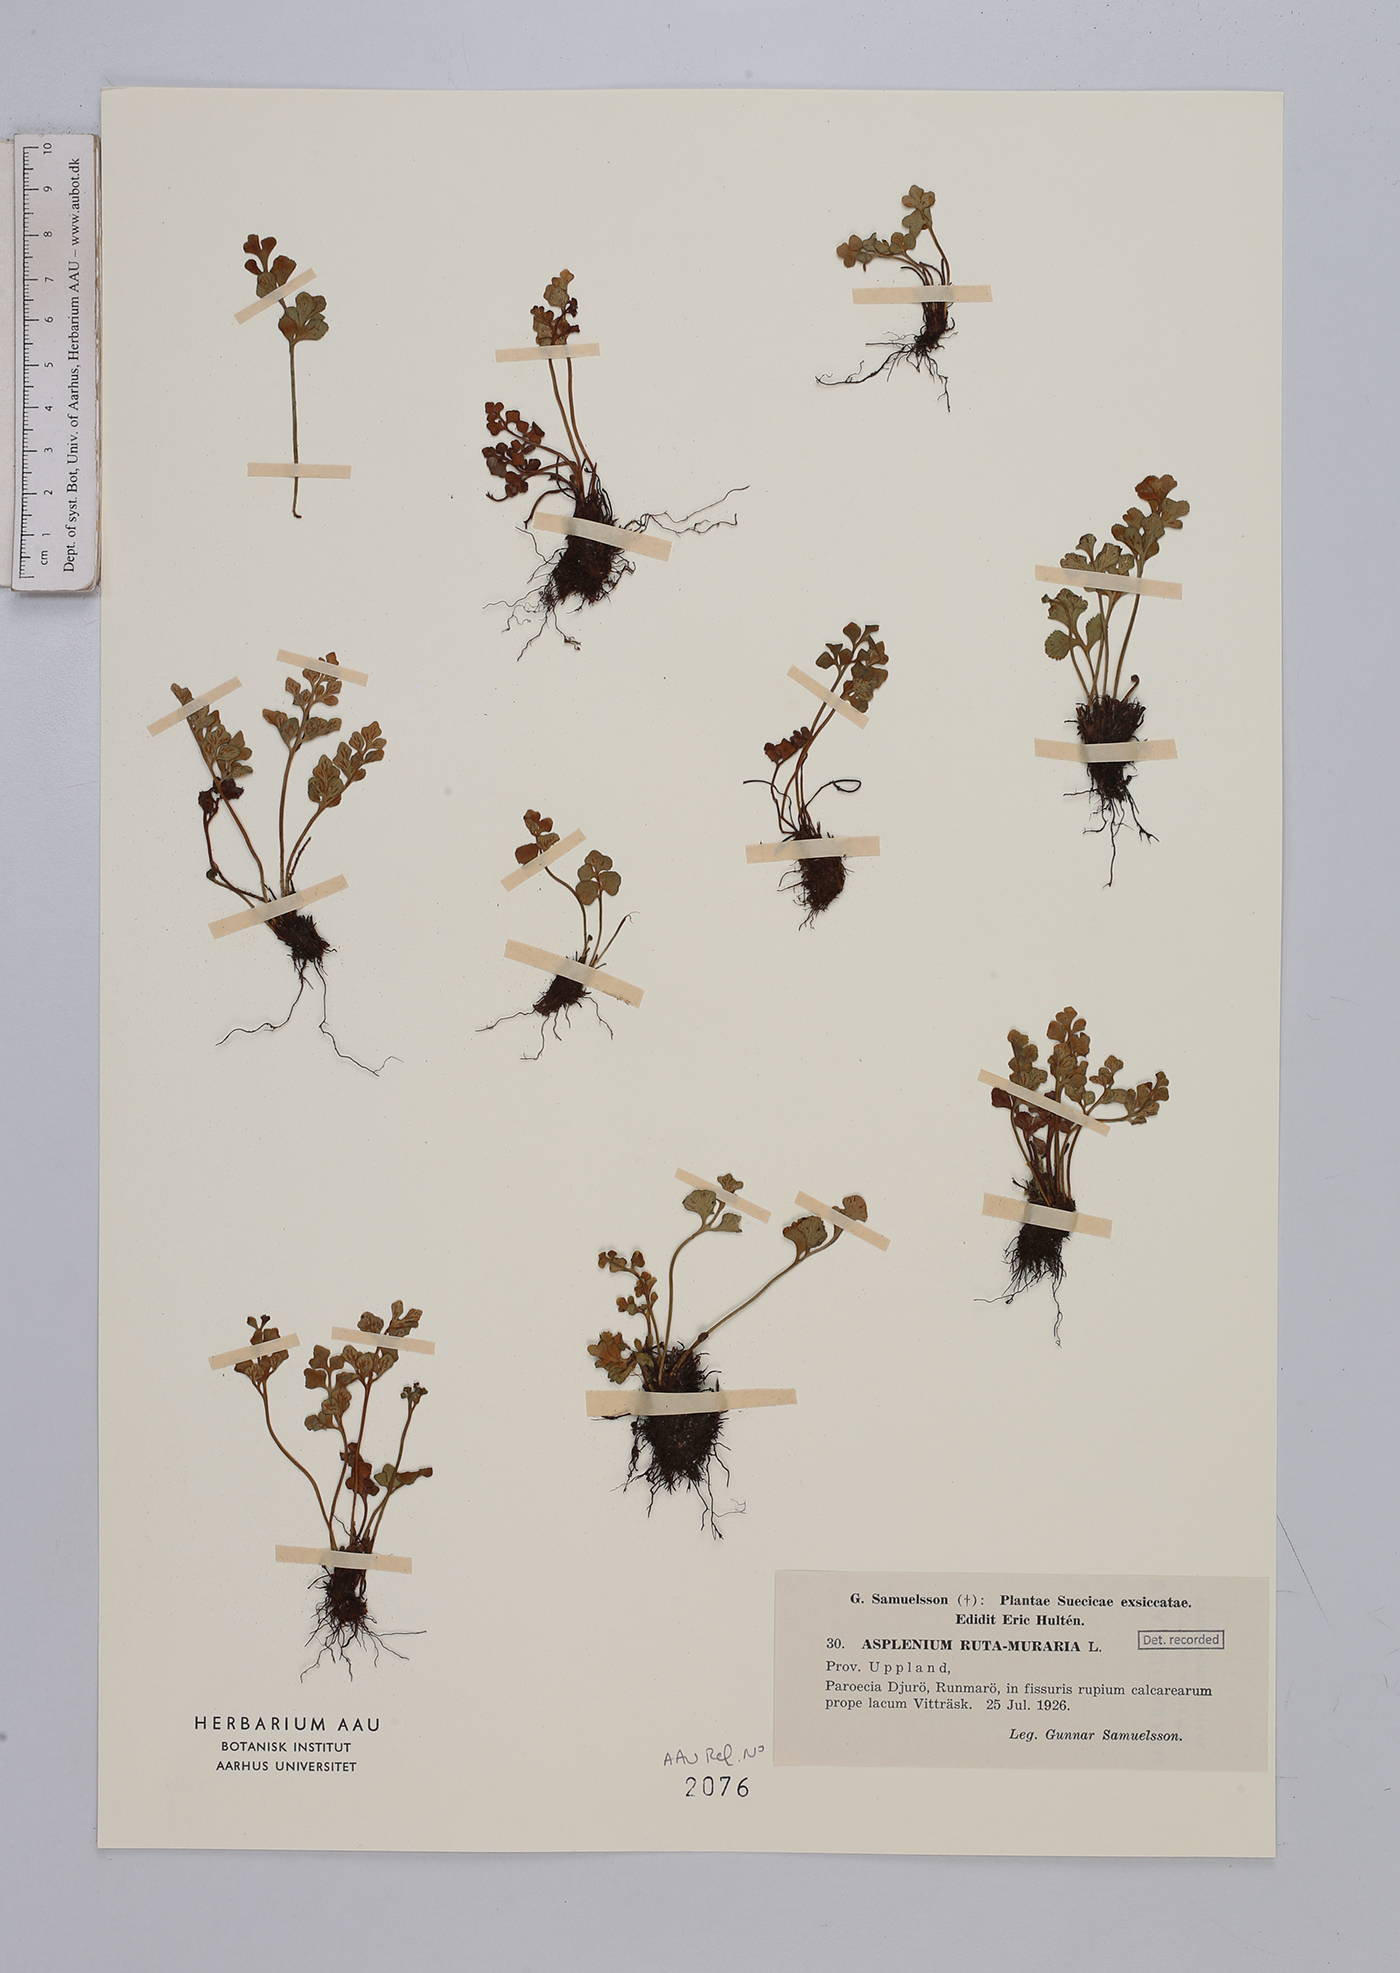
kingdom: Plantae
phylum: Tracheophyta
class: Polypodiopsida
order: Polypodiales
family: Aspleniaceae
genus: Asplenium
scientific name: Asplenium ruta-muraria
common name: Wall-rue
